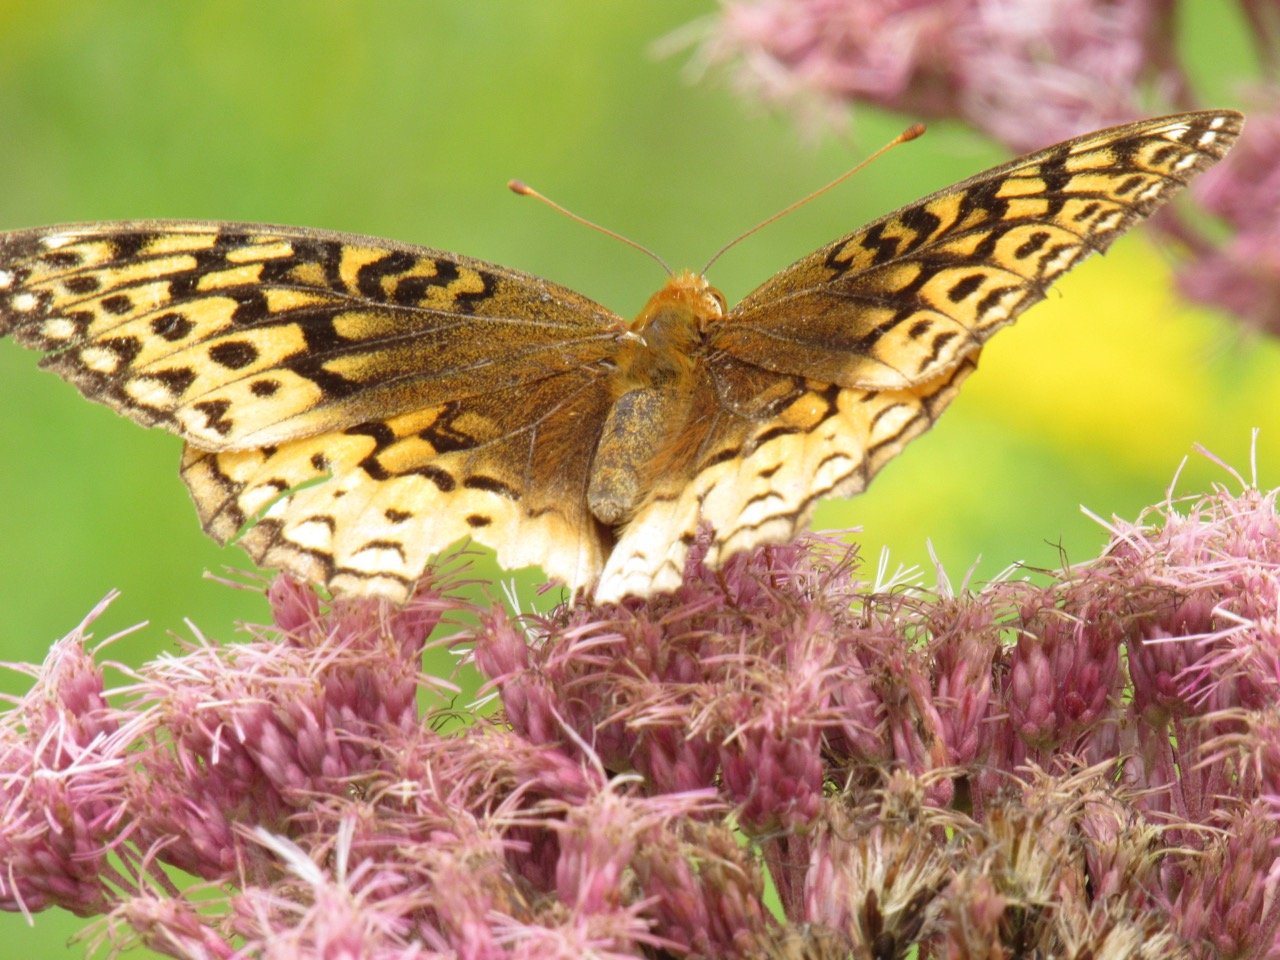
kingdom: Animalia
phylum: Arthropoda
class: Insecta
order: Lepidoptera
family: Nymphalidae
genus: Speyeria
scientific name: Speyeria cybele
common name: Great Spangled Fritillary
